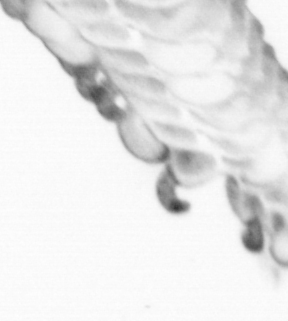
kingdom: Animalia
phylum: Annelida
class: Polychaeta
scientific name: Polychaeta
